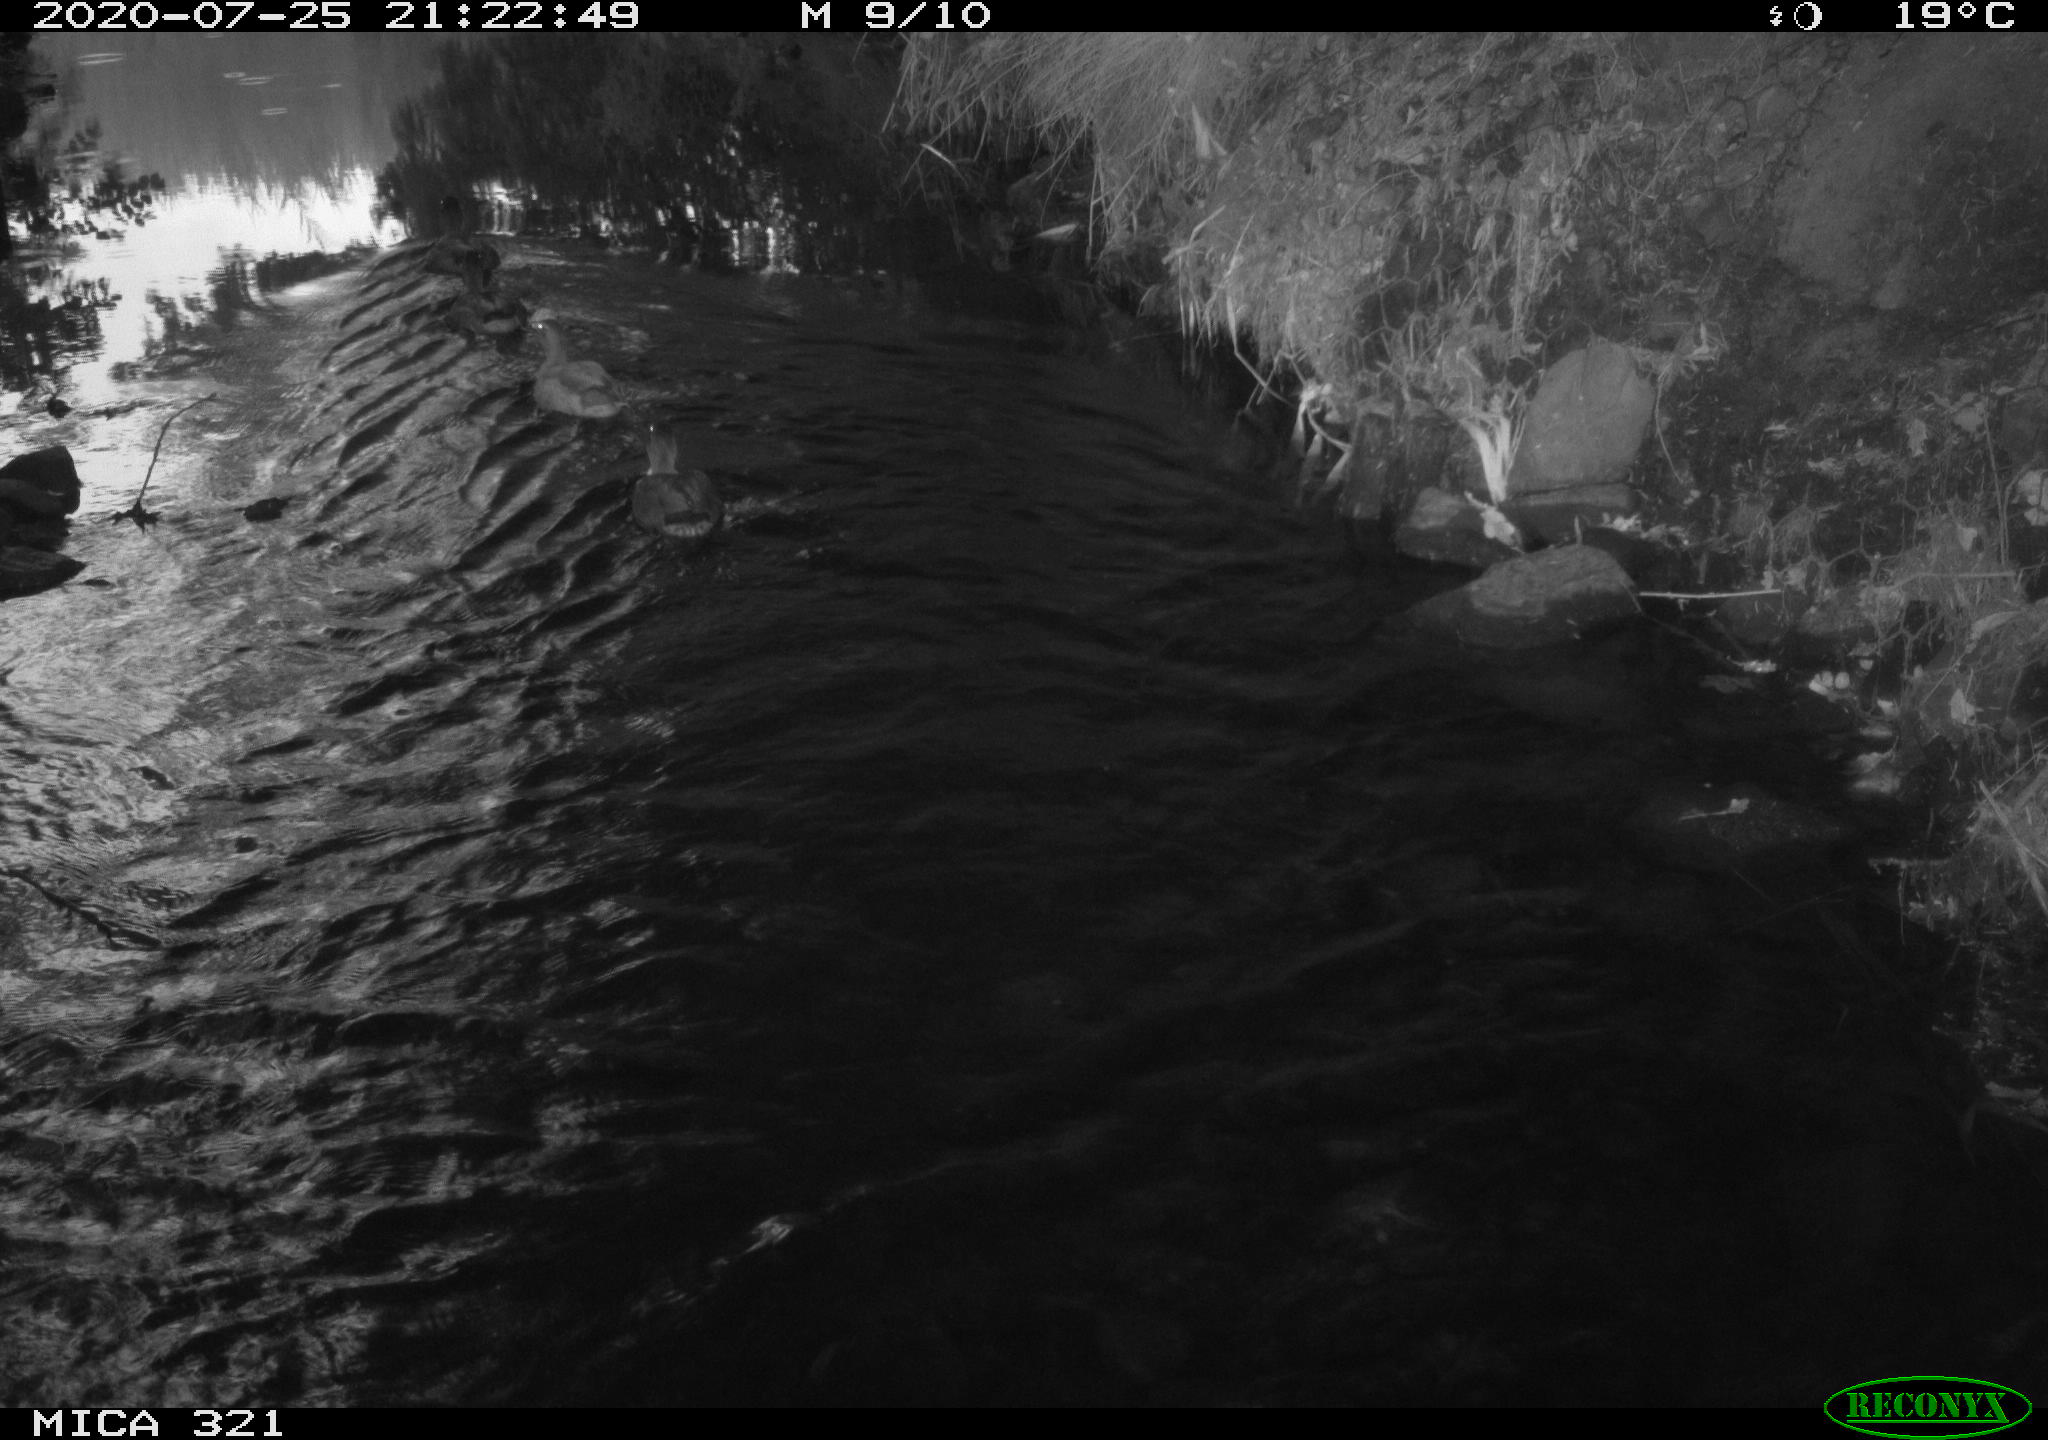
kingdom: Animalia
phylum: Chordata
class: Aves
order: Anseriformes
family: Anatidae
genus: Anas
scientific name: Anas platyrhynchos
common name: Mallard
